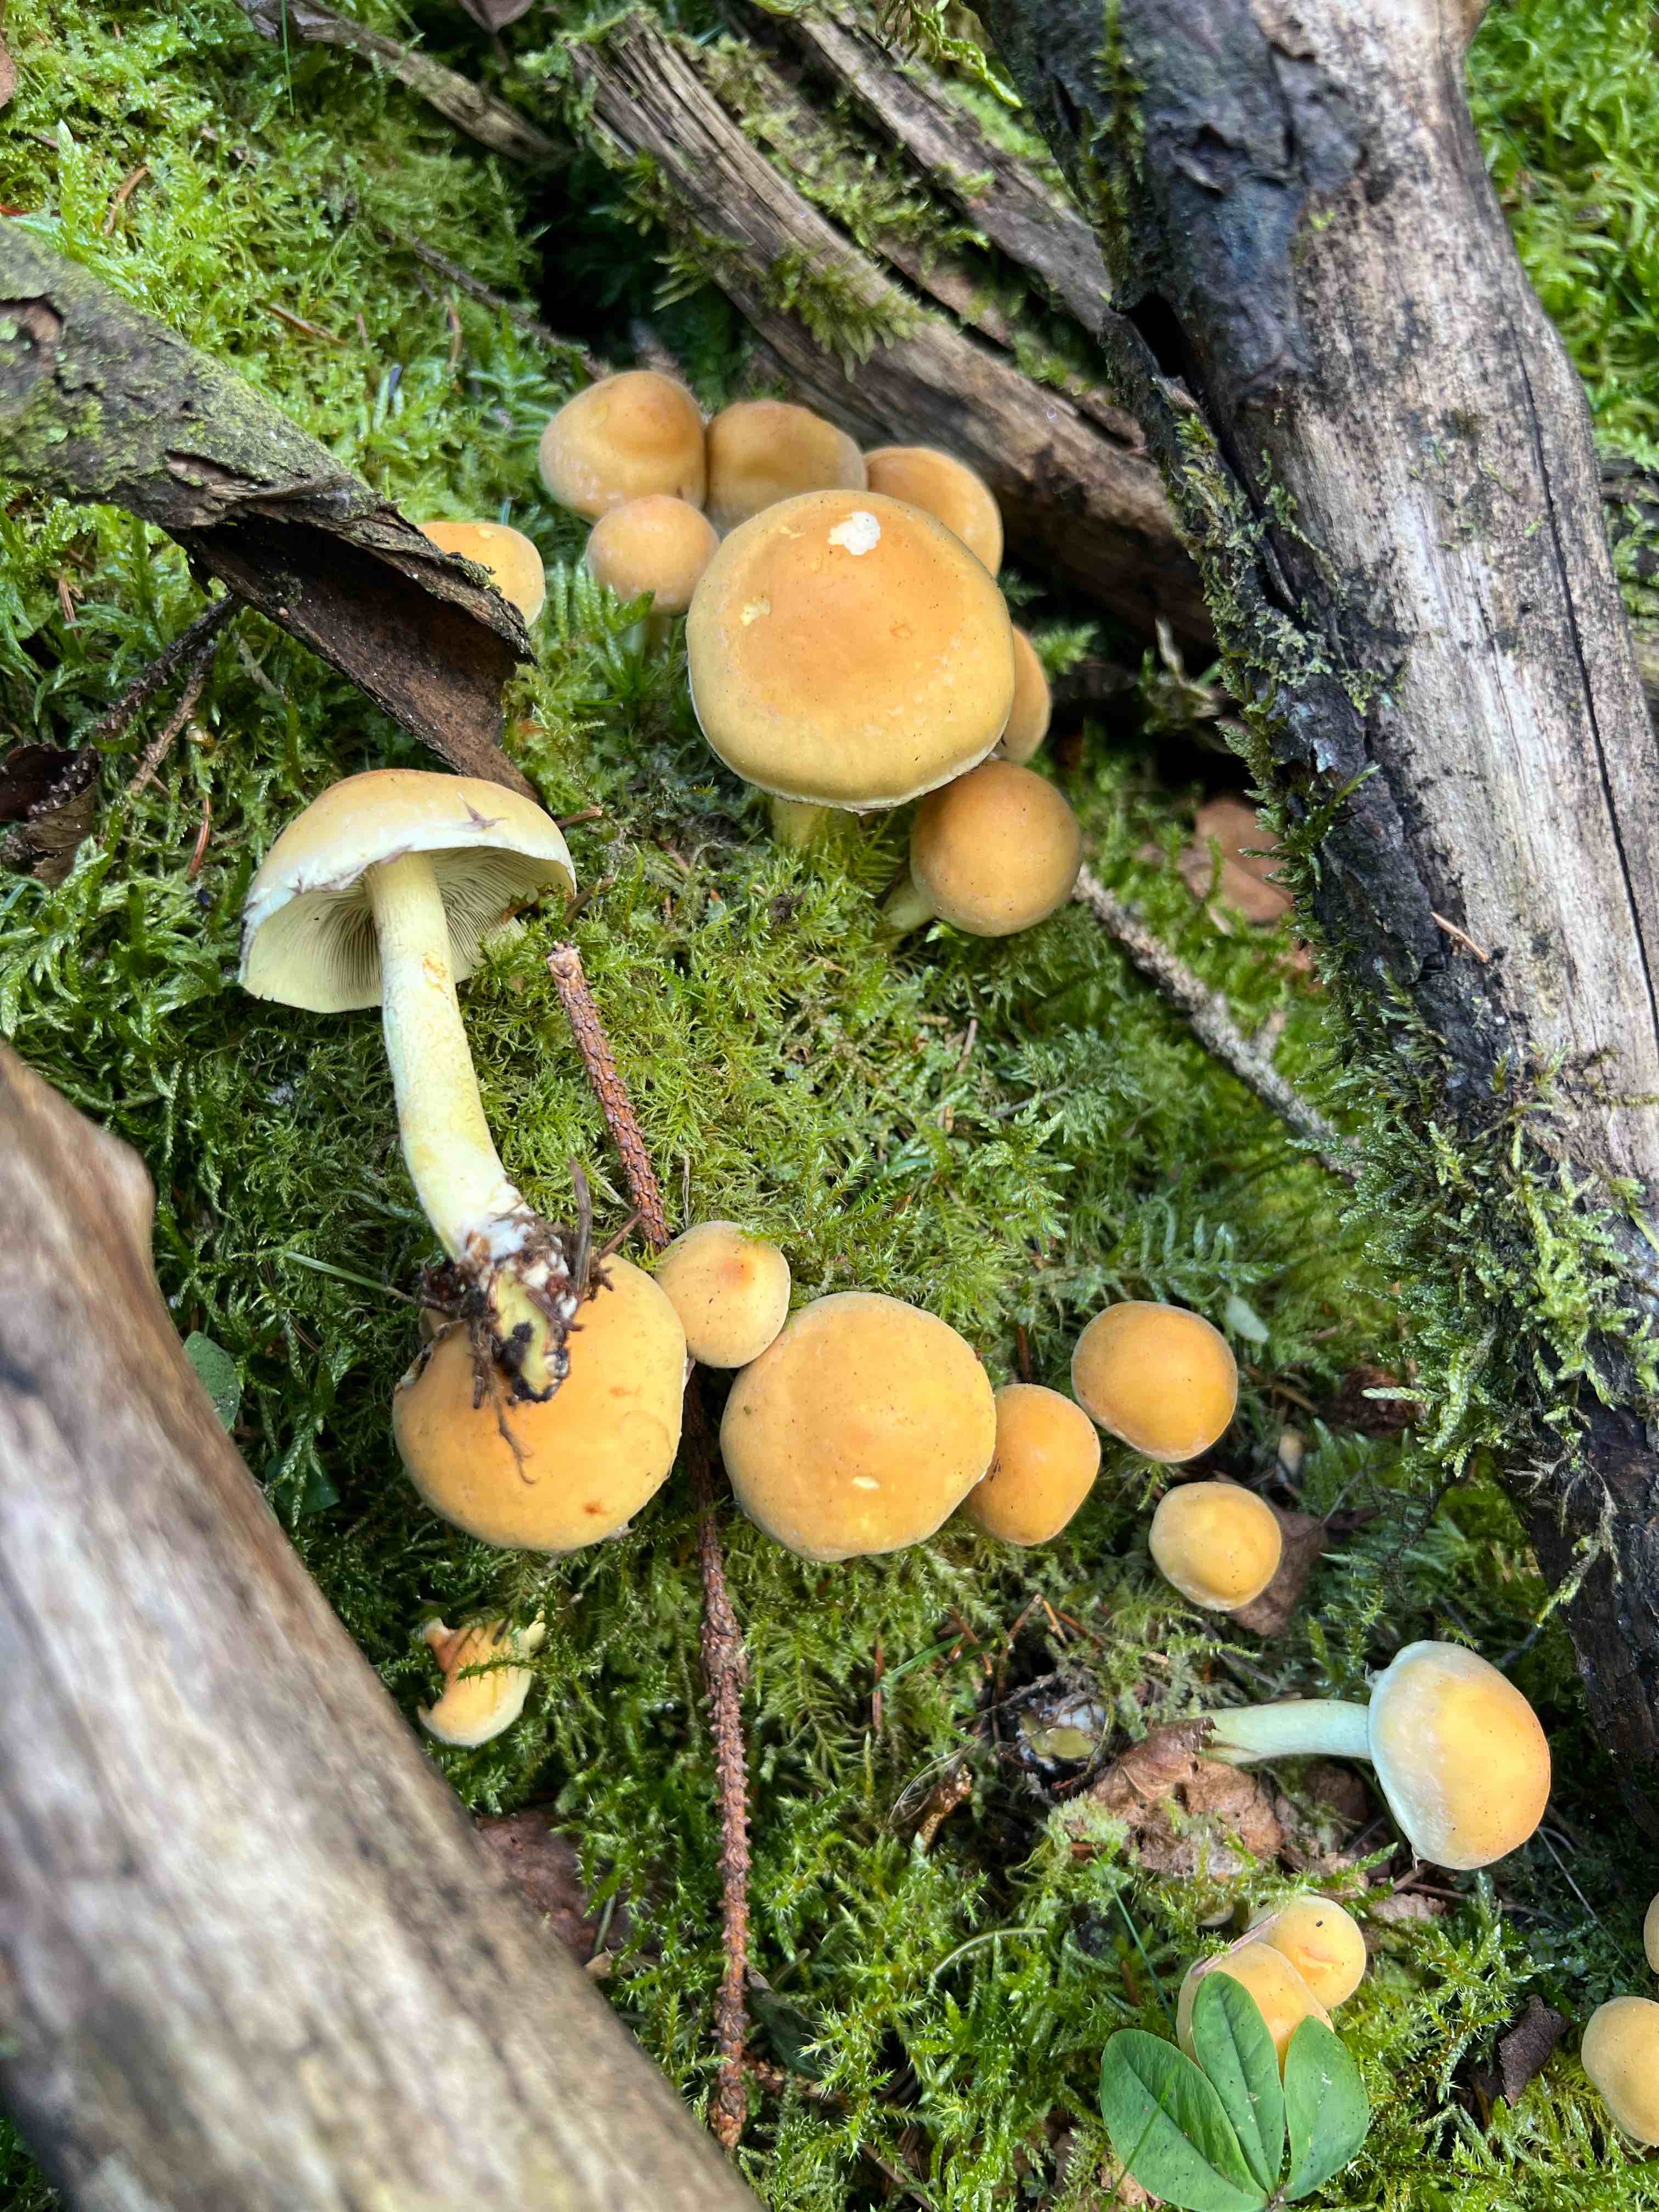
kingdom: Fungi
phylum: Basidiomycota
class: Agaricomycetes
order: Agaricales
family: Strophariaceae
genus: Hypholoma
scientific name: Hypholoma fasciculare
